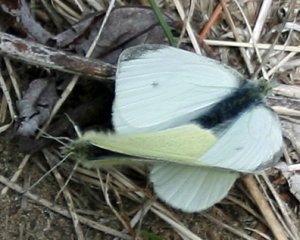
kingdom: Animalia
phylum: Arthropoda
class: Insecta
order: Lepidoptera
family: Pieridae
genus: Pieris
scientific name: Pieris rapae
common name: Cabbage White
